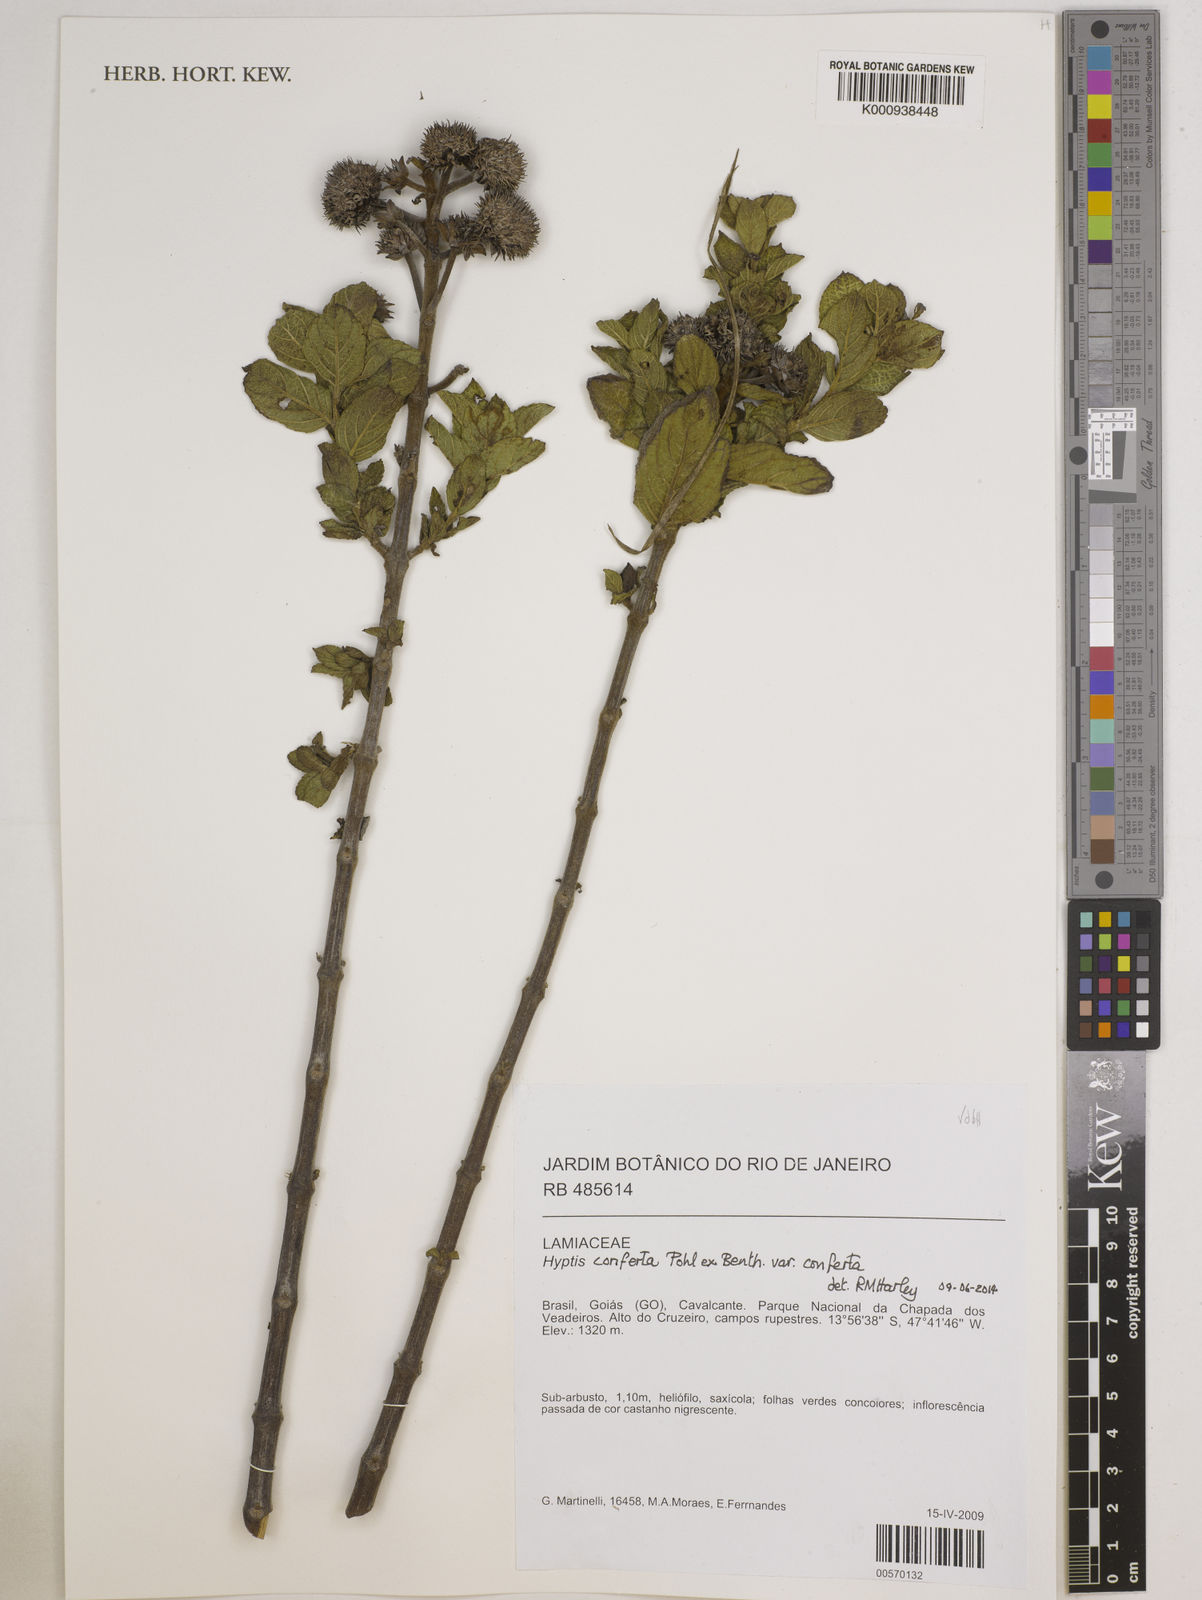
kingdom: Plantae
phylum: Tracheophyta
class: Magnoliopsida
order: Lamiales
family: Lamiaceae
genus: Hyptis
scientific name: Hyptis conferta
